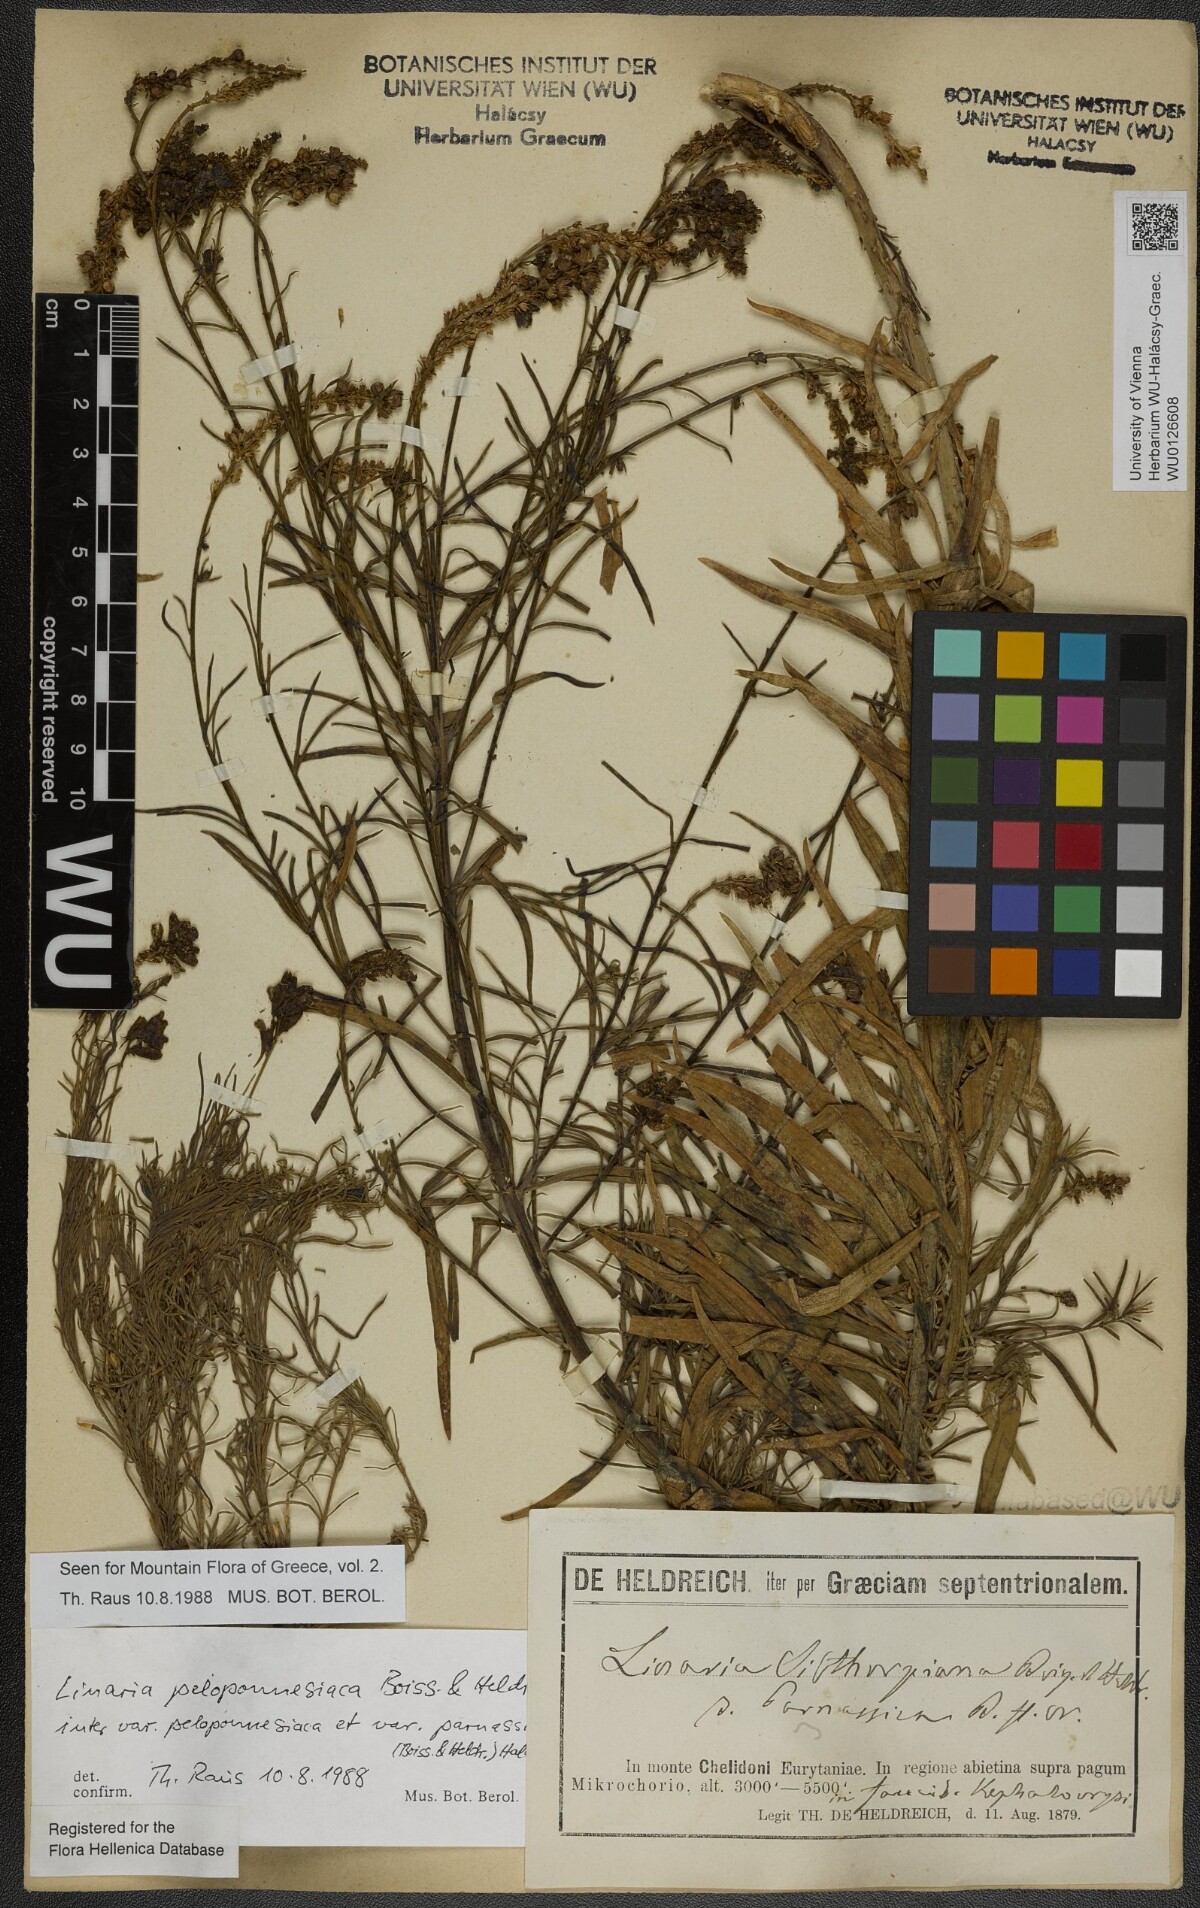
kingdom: Plantae
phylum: Tracheophyta
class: Magnoliopsida
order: Lamiales
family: Plantaginaceae
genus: Linaria
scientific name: Linaria peloponnesiaca
